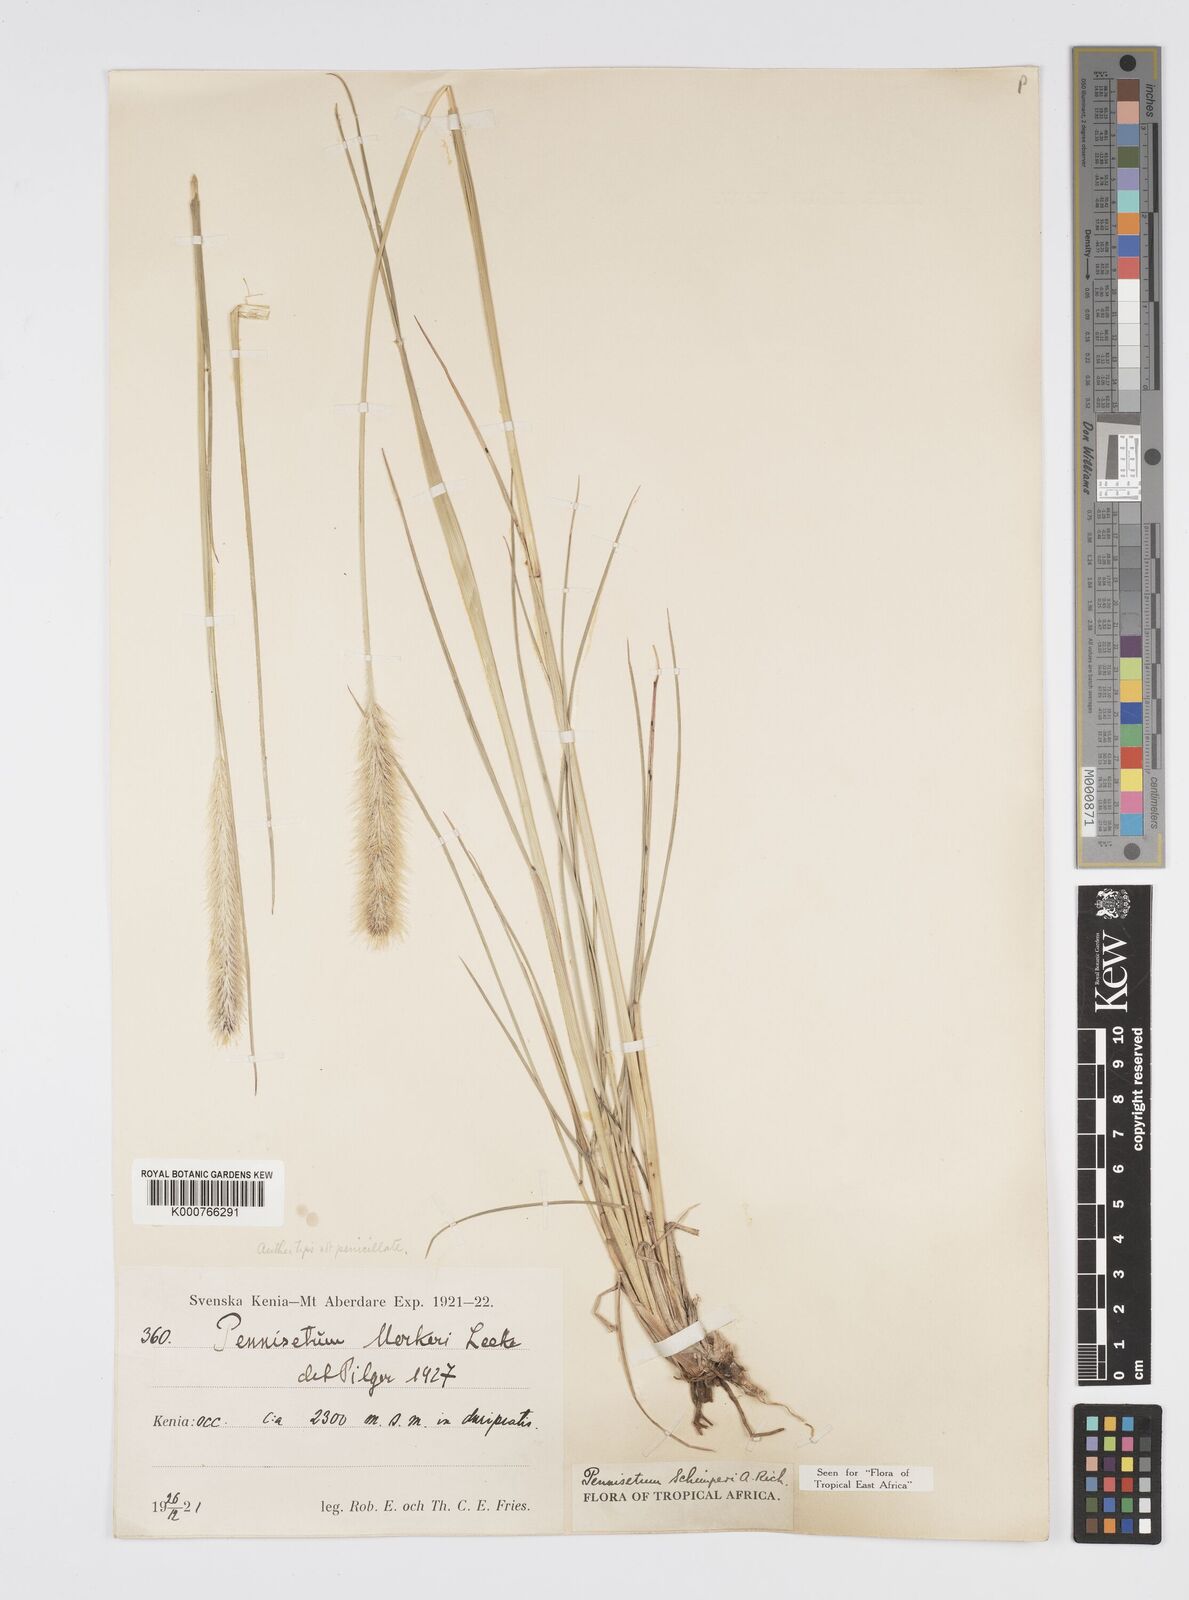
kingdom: Plantae
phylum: Tracheophyta
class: Liliopsida
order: Poales
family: Poaceae
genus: Cenchrus
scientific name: Cenchrus sphacelatus
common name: Bulgras
